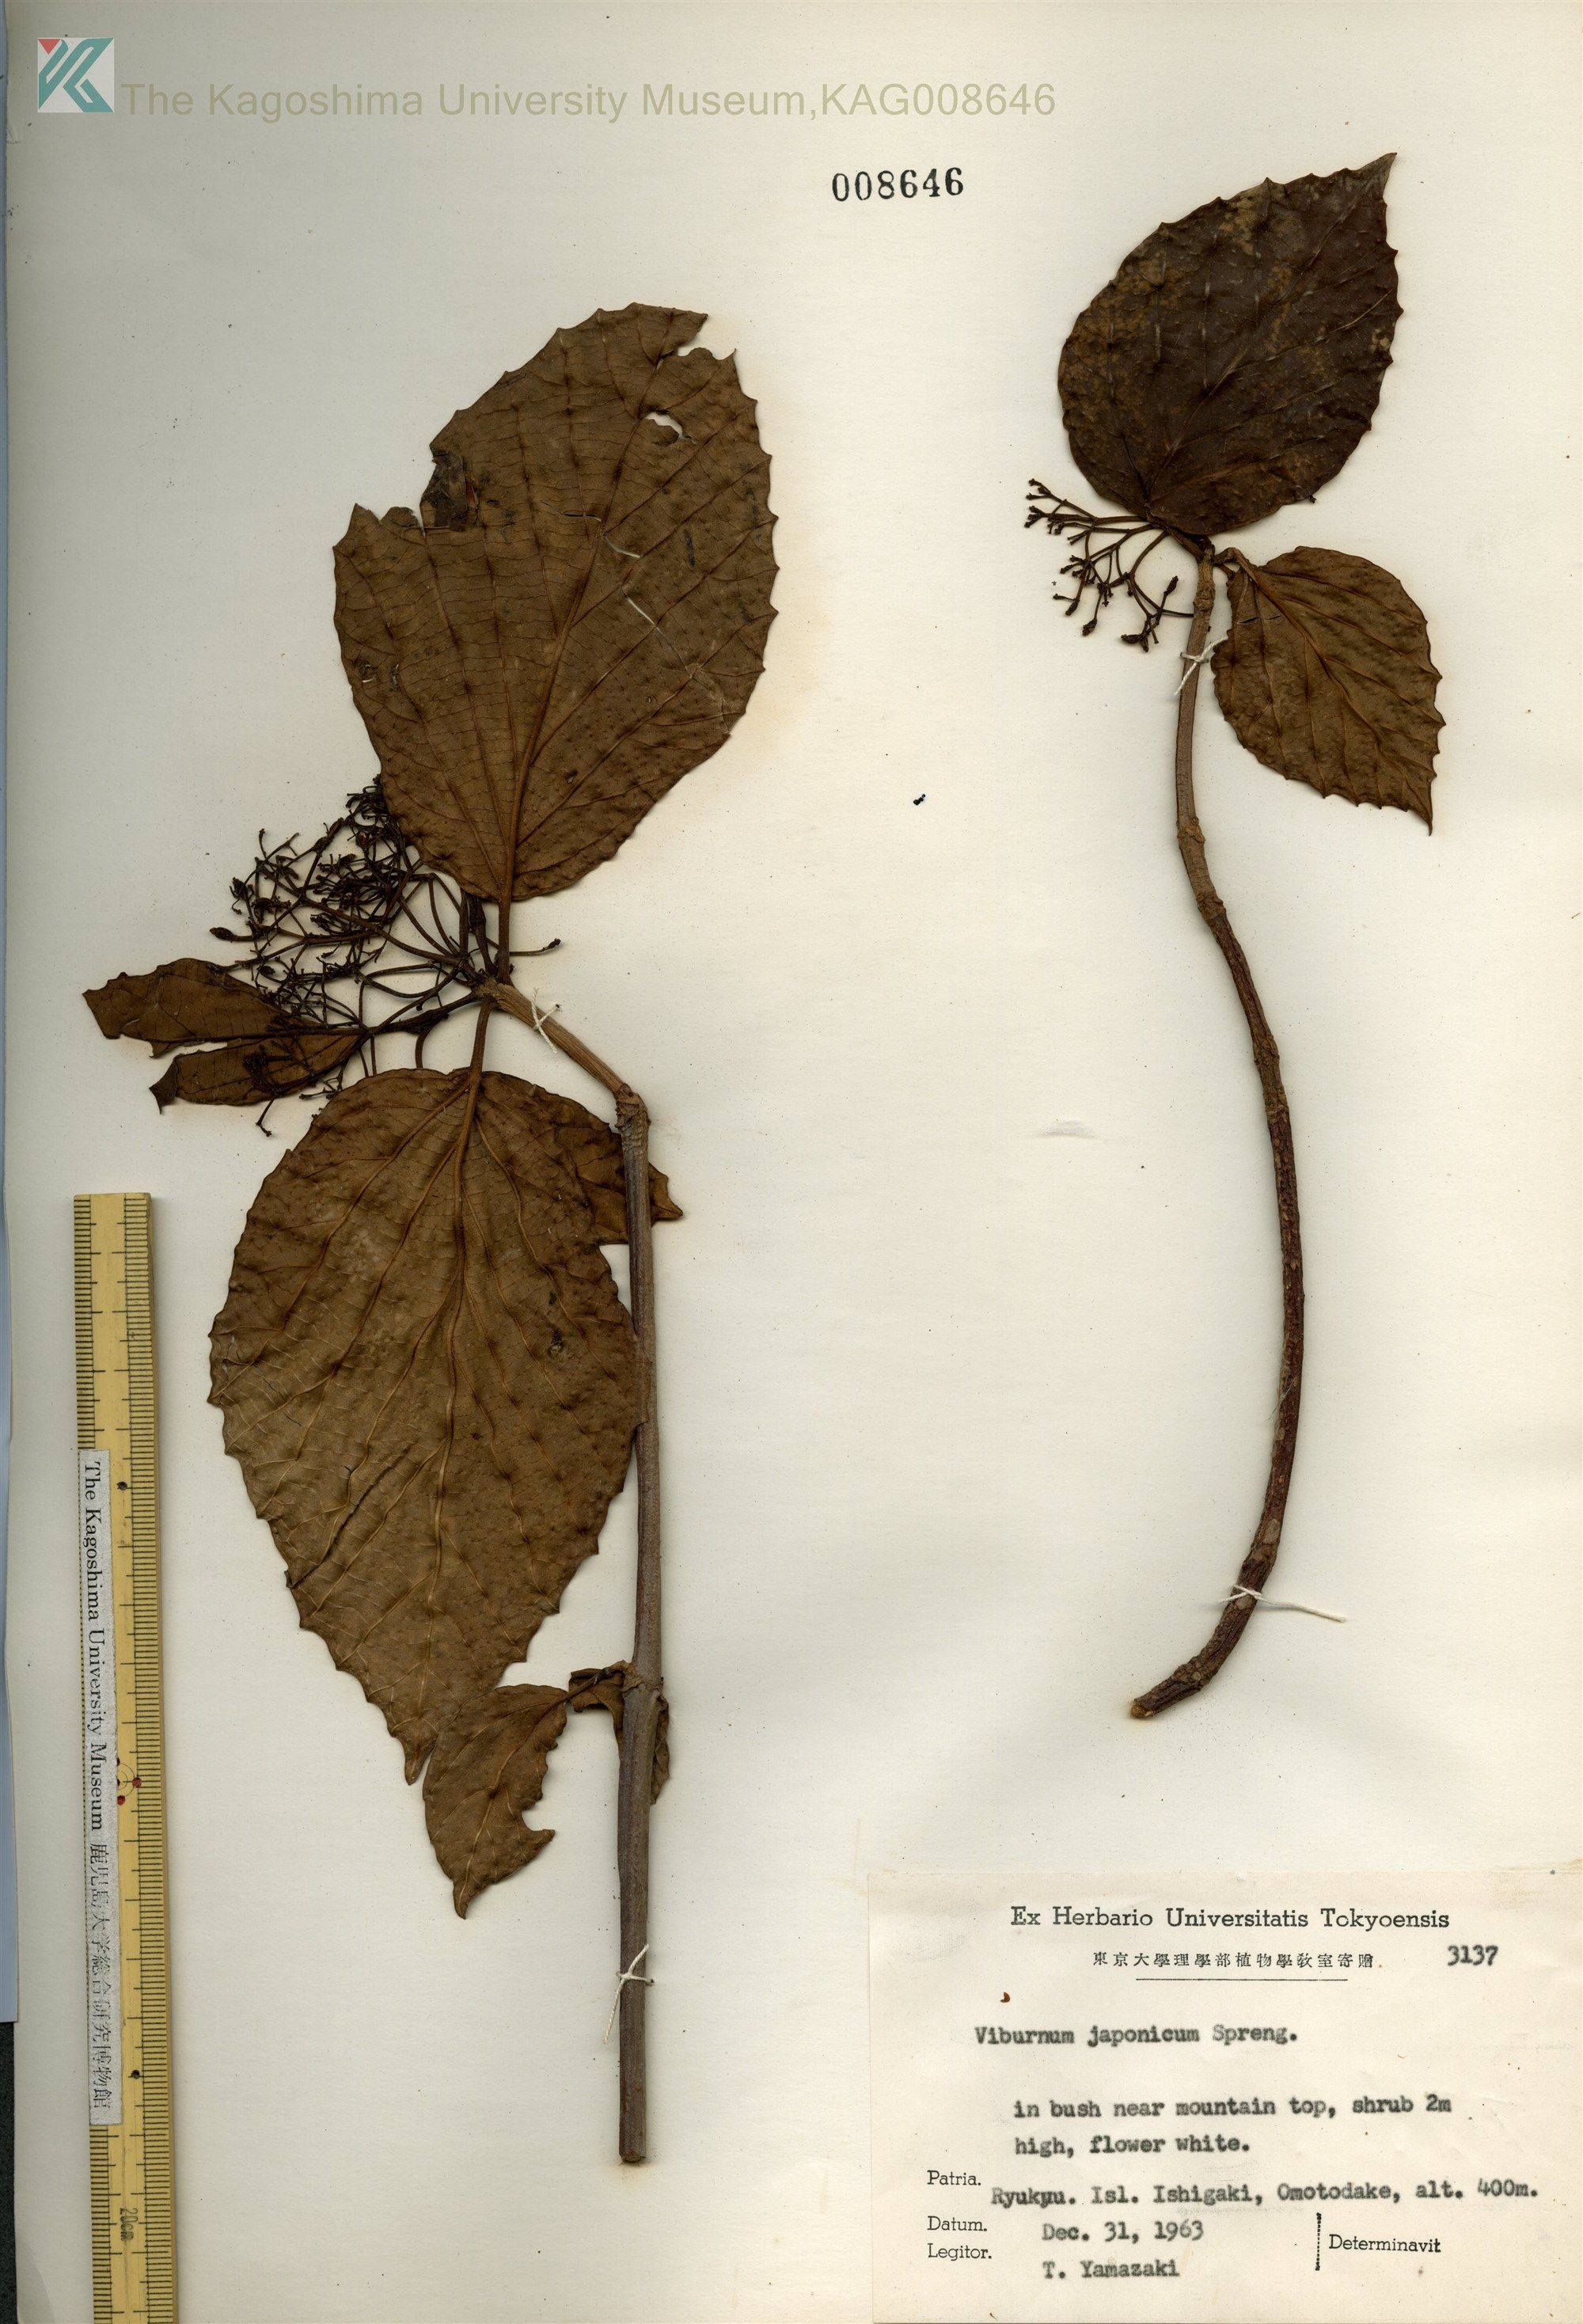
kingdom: Plantae
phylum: Tracheophyta
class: Magnoliopsida
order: Dipsacales
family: Viburnaceae
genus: Viburnum
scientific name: Viburnum japonicum
